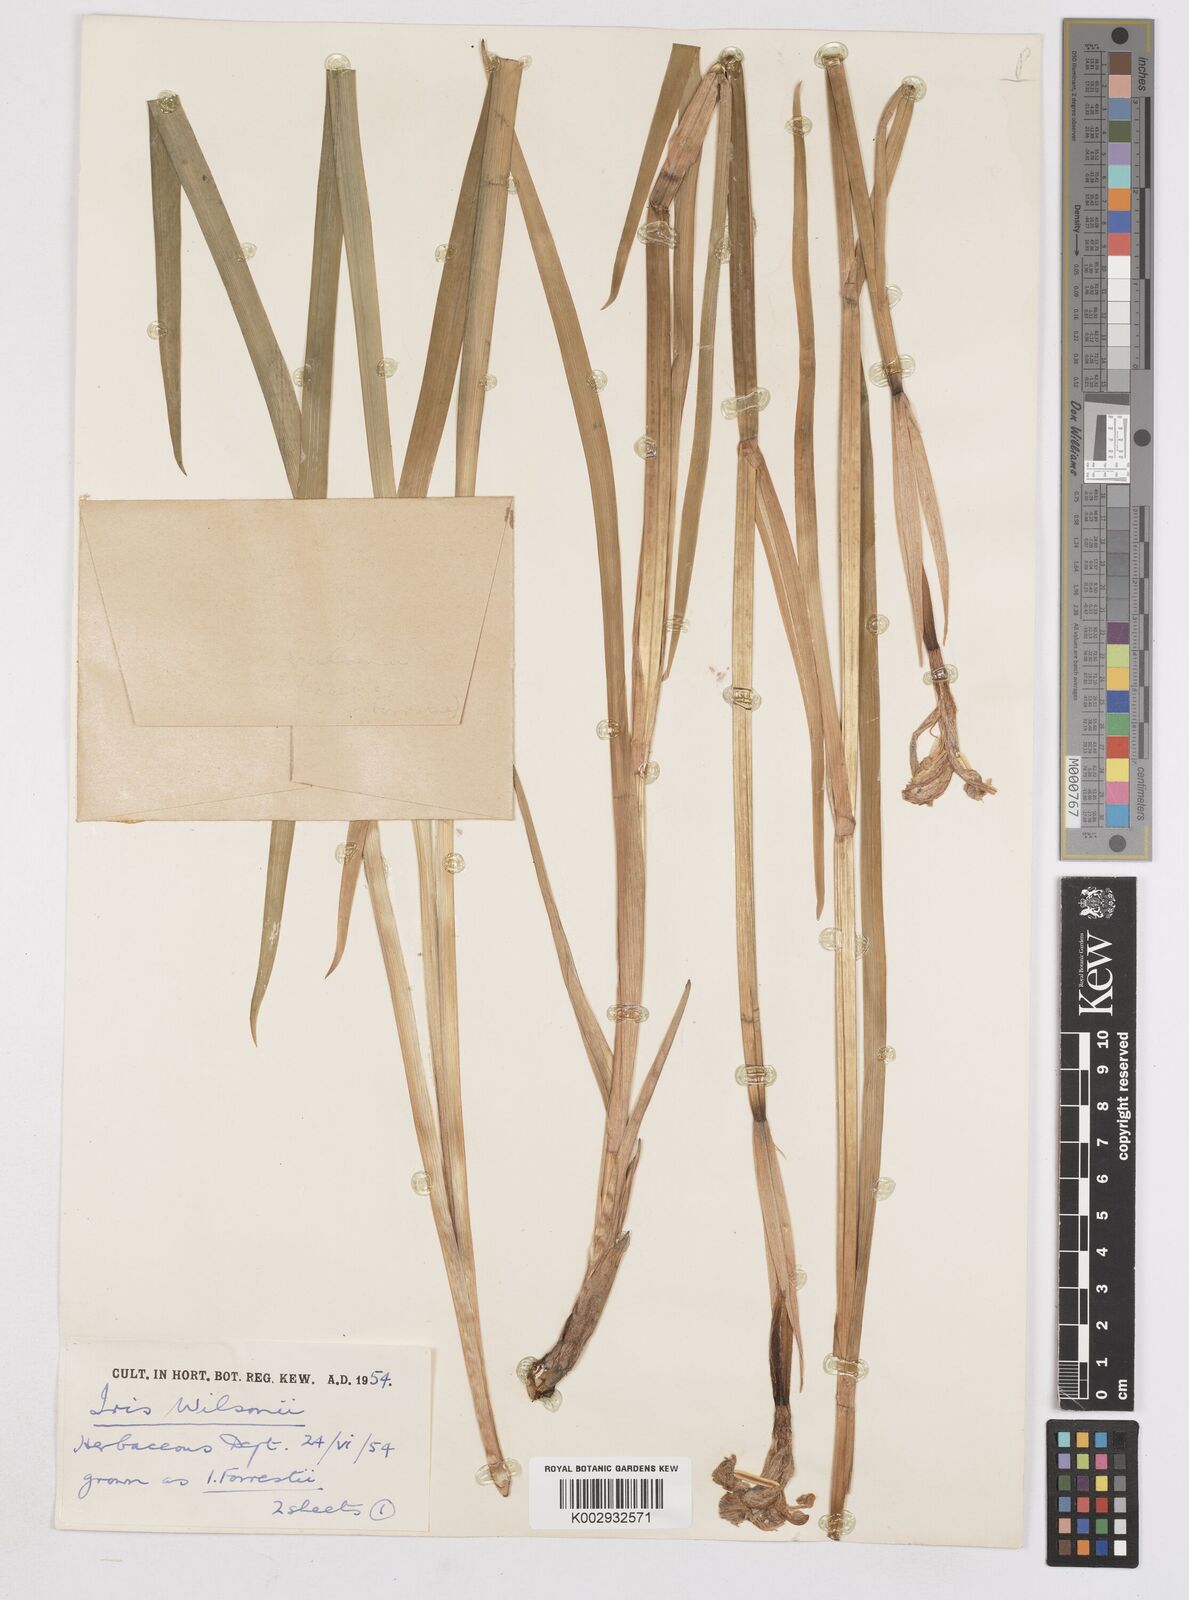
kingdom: Plantae
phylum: Tracheophyta
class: Liliopsida
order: Asparagales
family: Iridaceae
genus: Iris
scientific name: Iris wilsonii
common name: Yellow-flower iris
